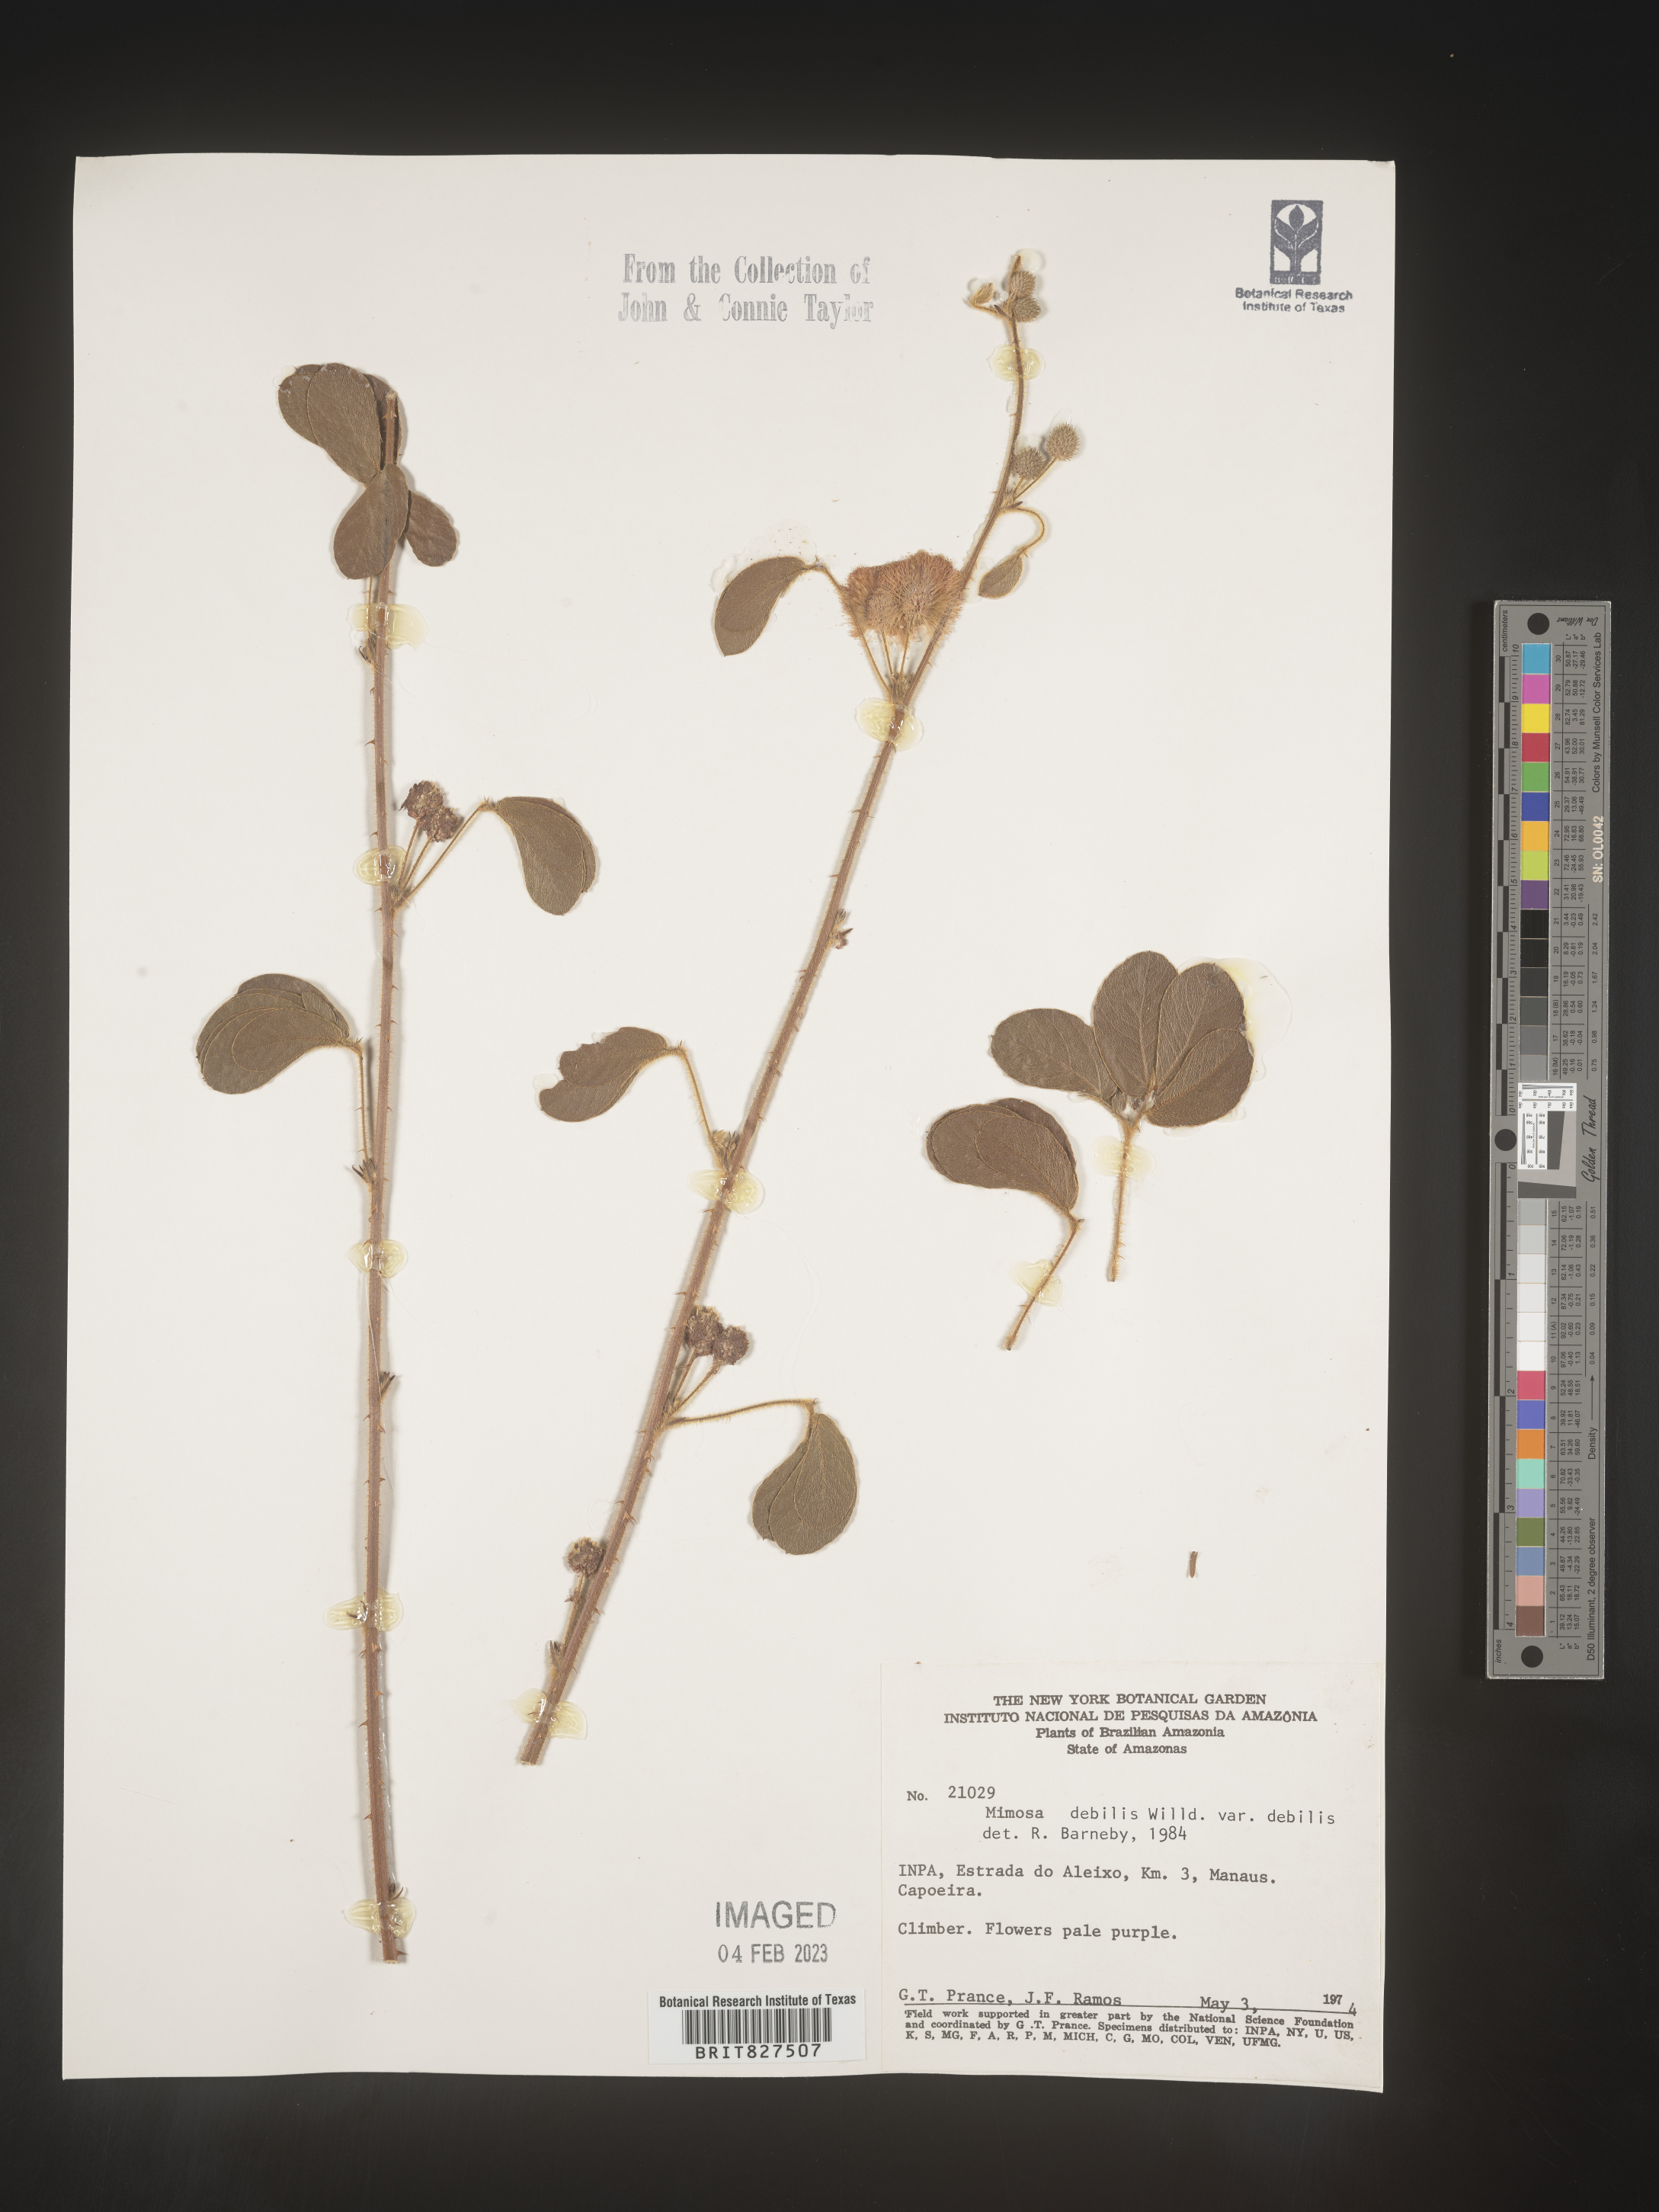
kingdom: Plantae
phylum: Tracheophyta
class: Magnoliopsida
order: Fabales
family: Fabaceae
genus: Mimosa
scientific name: Mimosa
